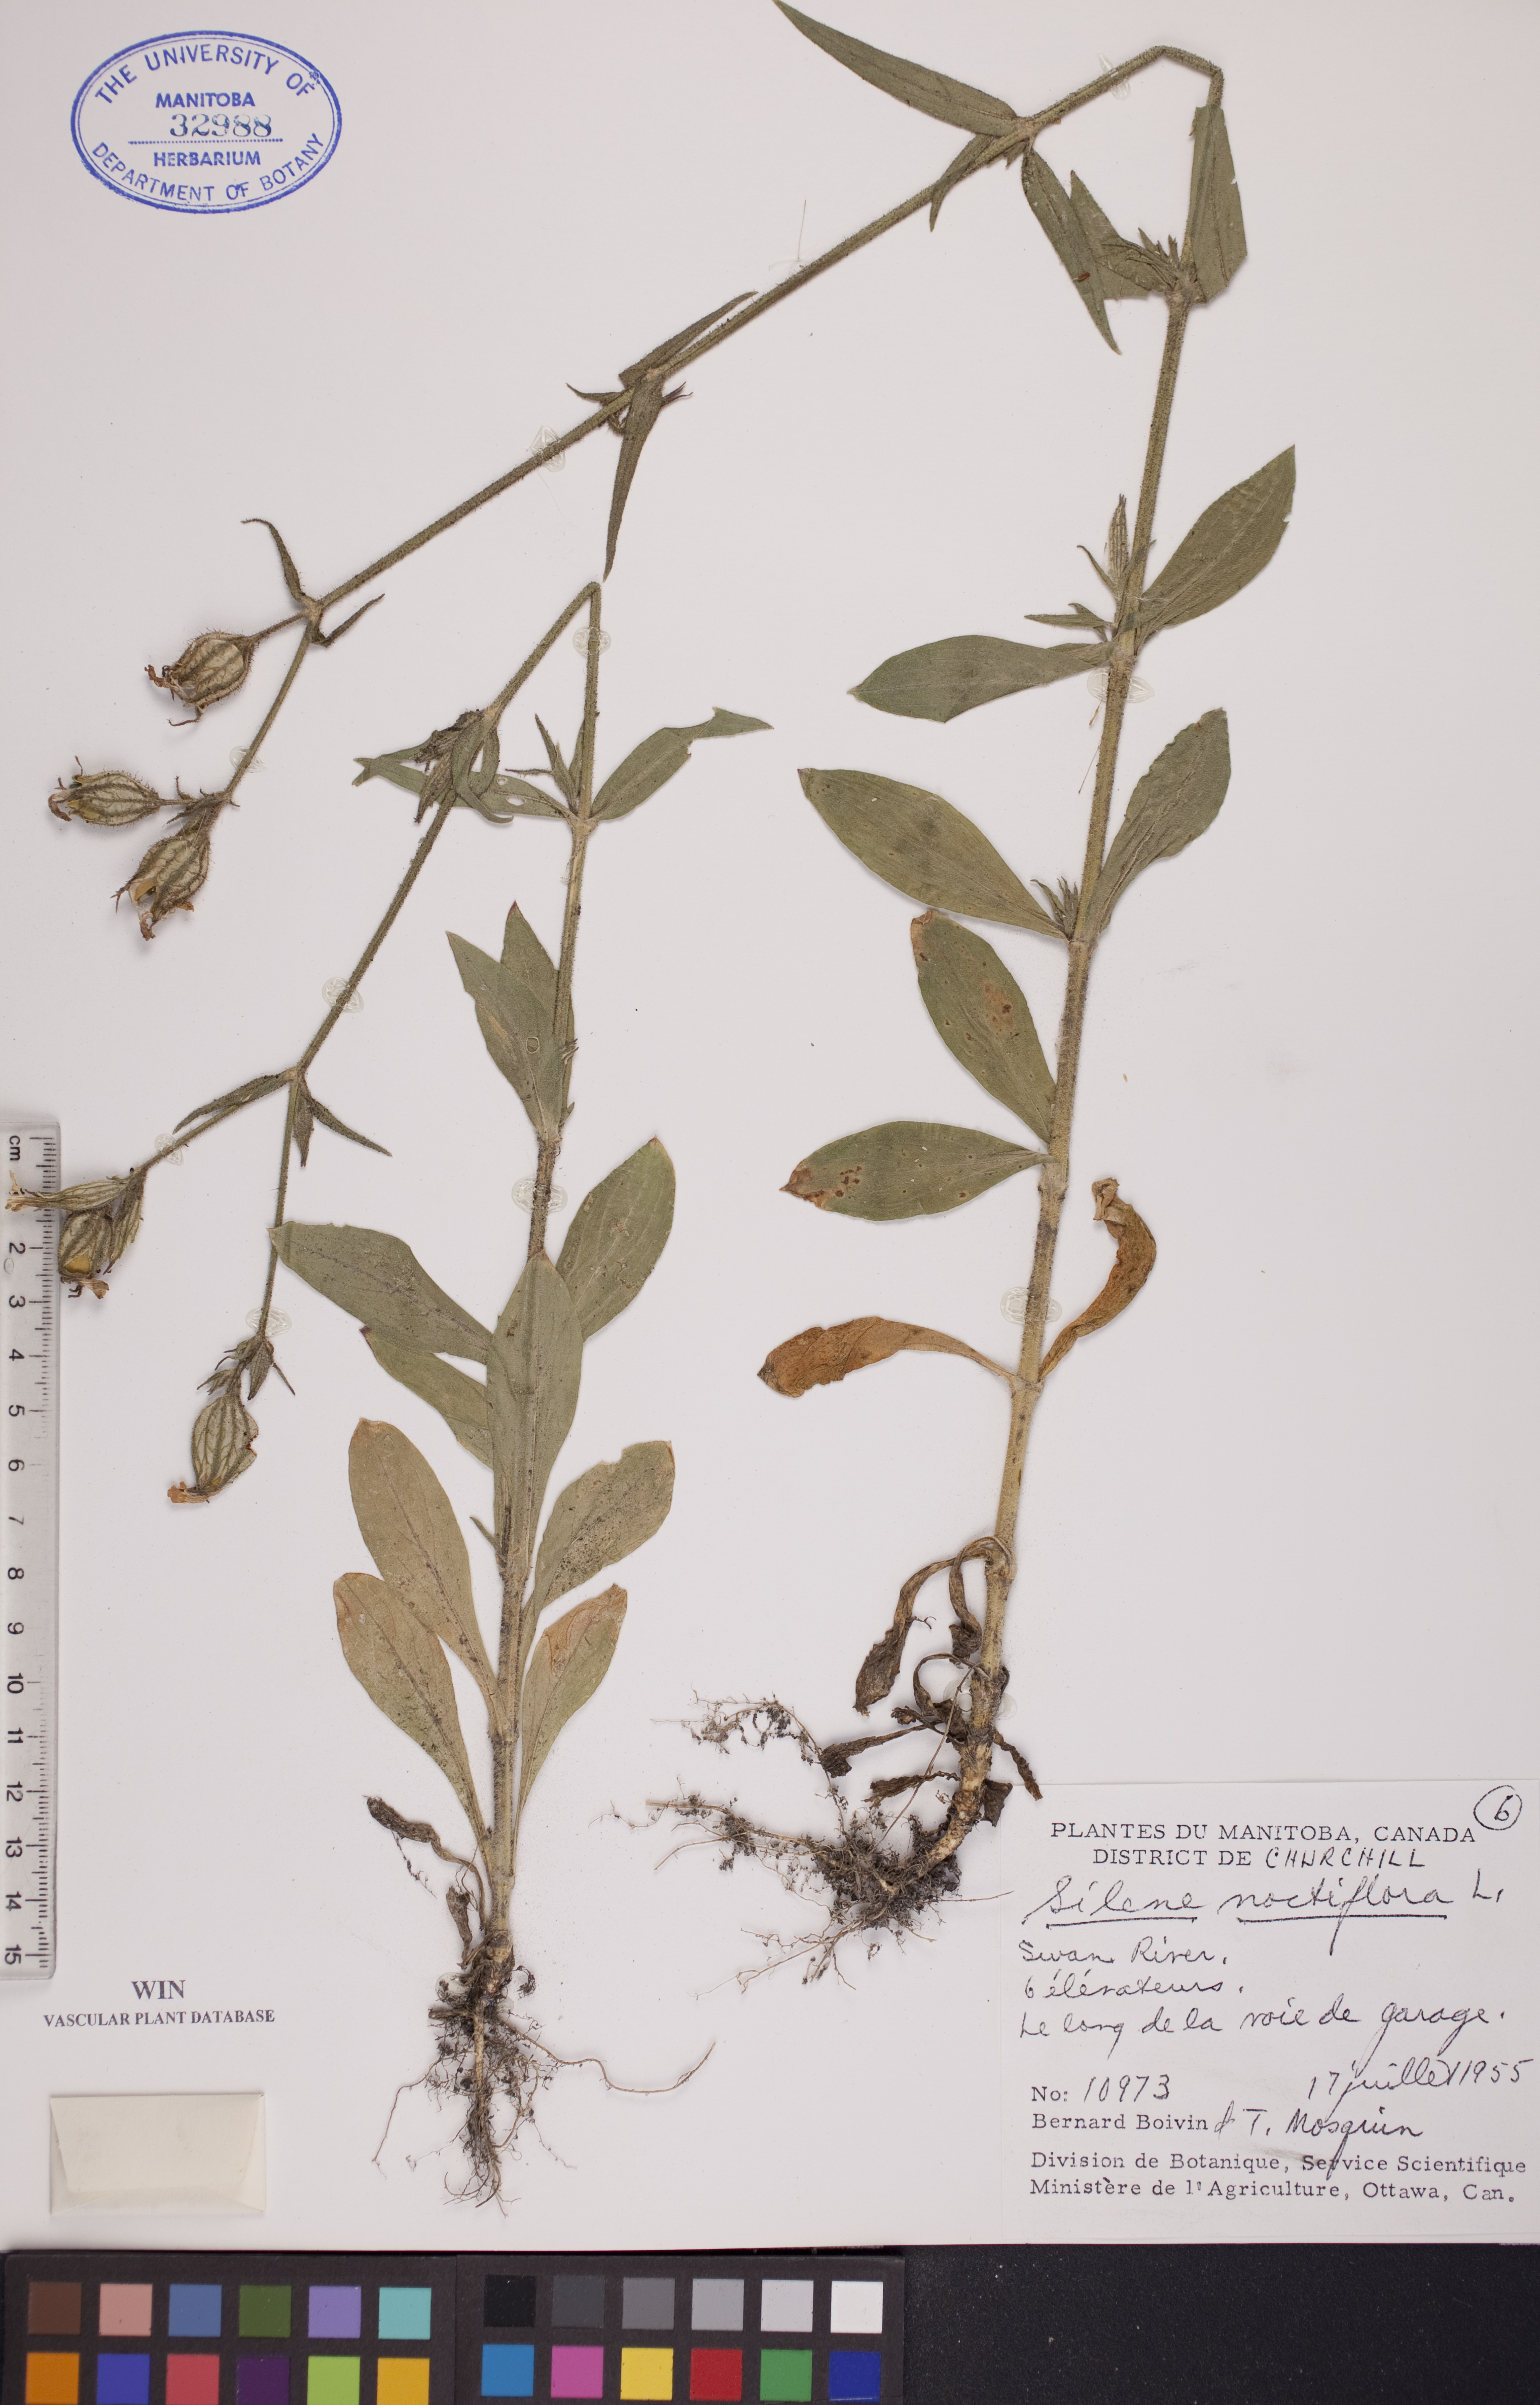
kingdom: Plantae
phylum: Tracheophyta
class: Magnoliopsida
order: Caryophyllales
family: Caryophyllaceae
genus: Silene
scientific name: Silene noctiflora
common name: Night-flowering catchfly
